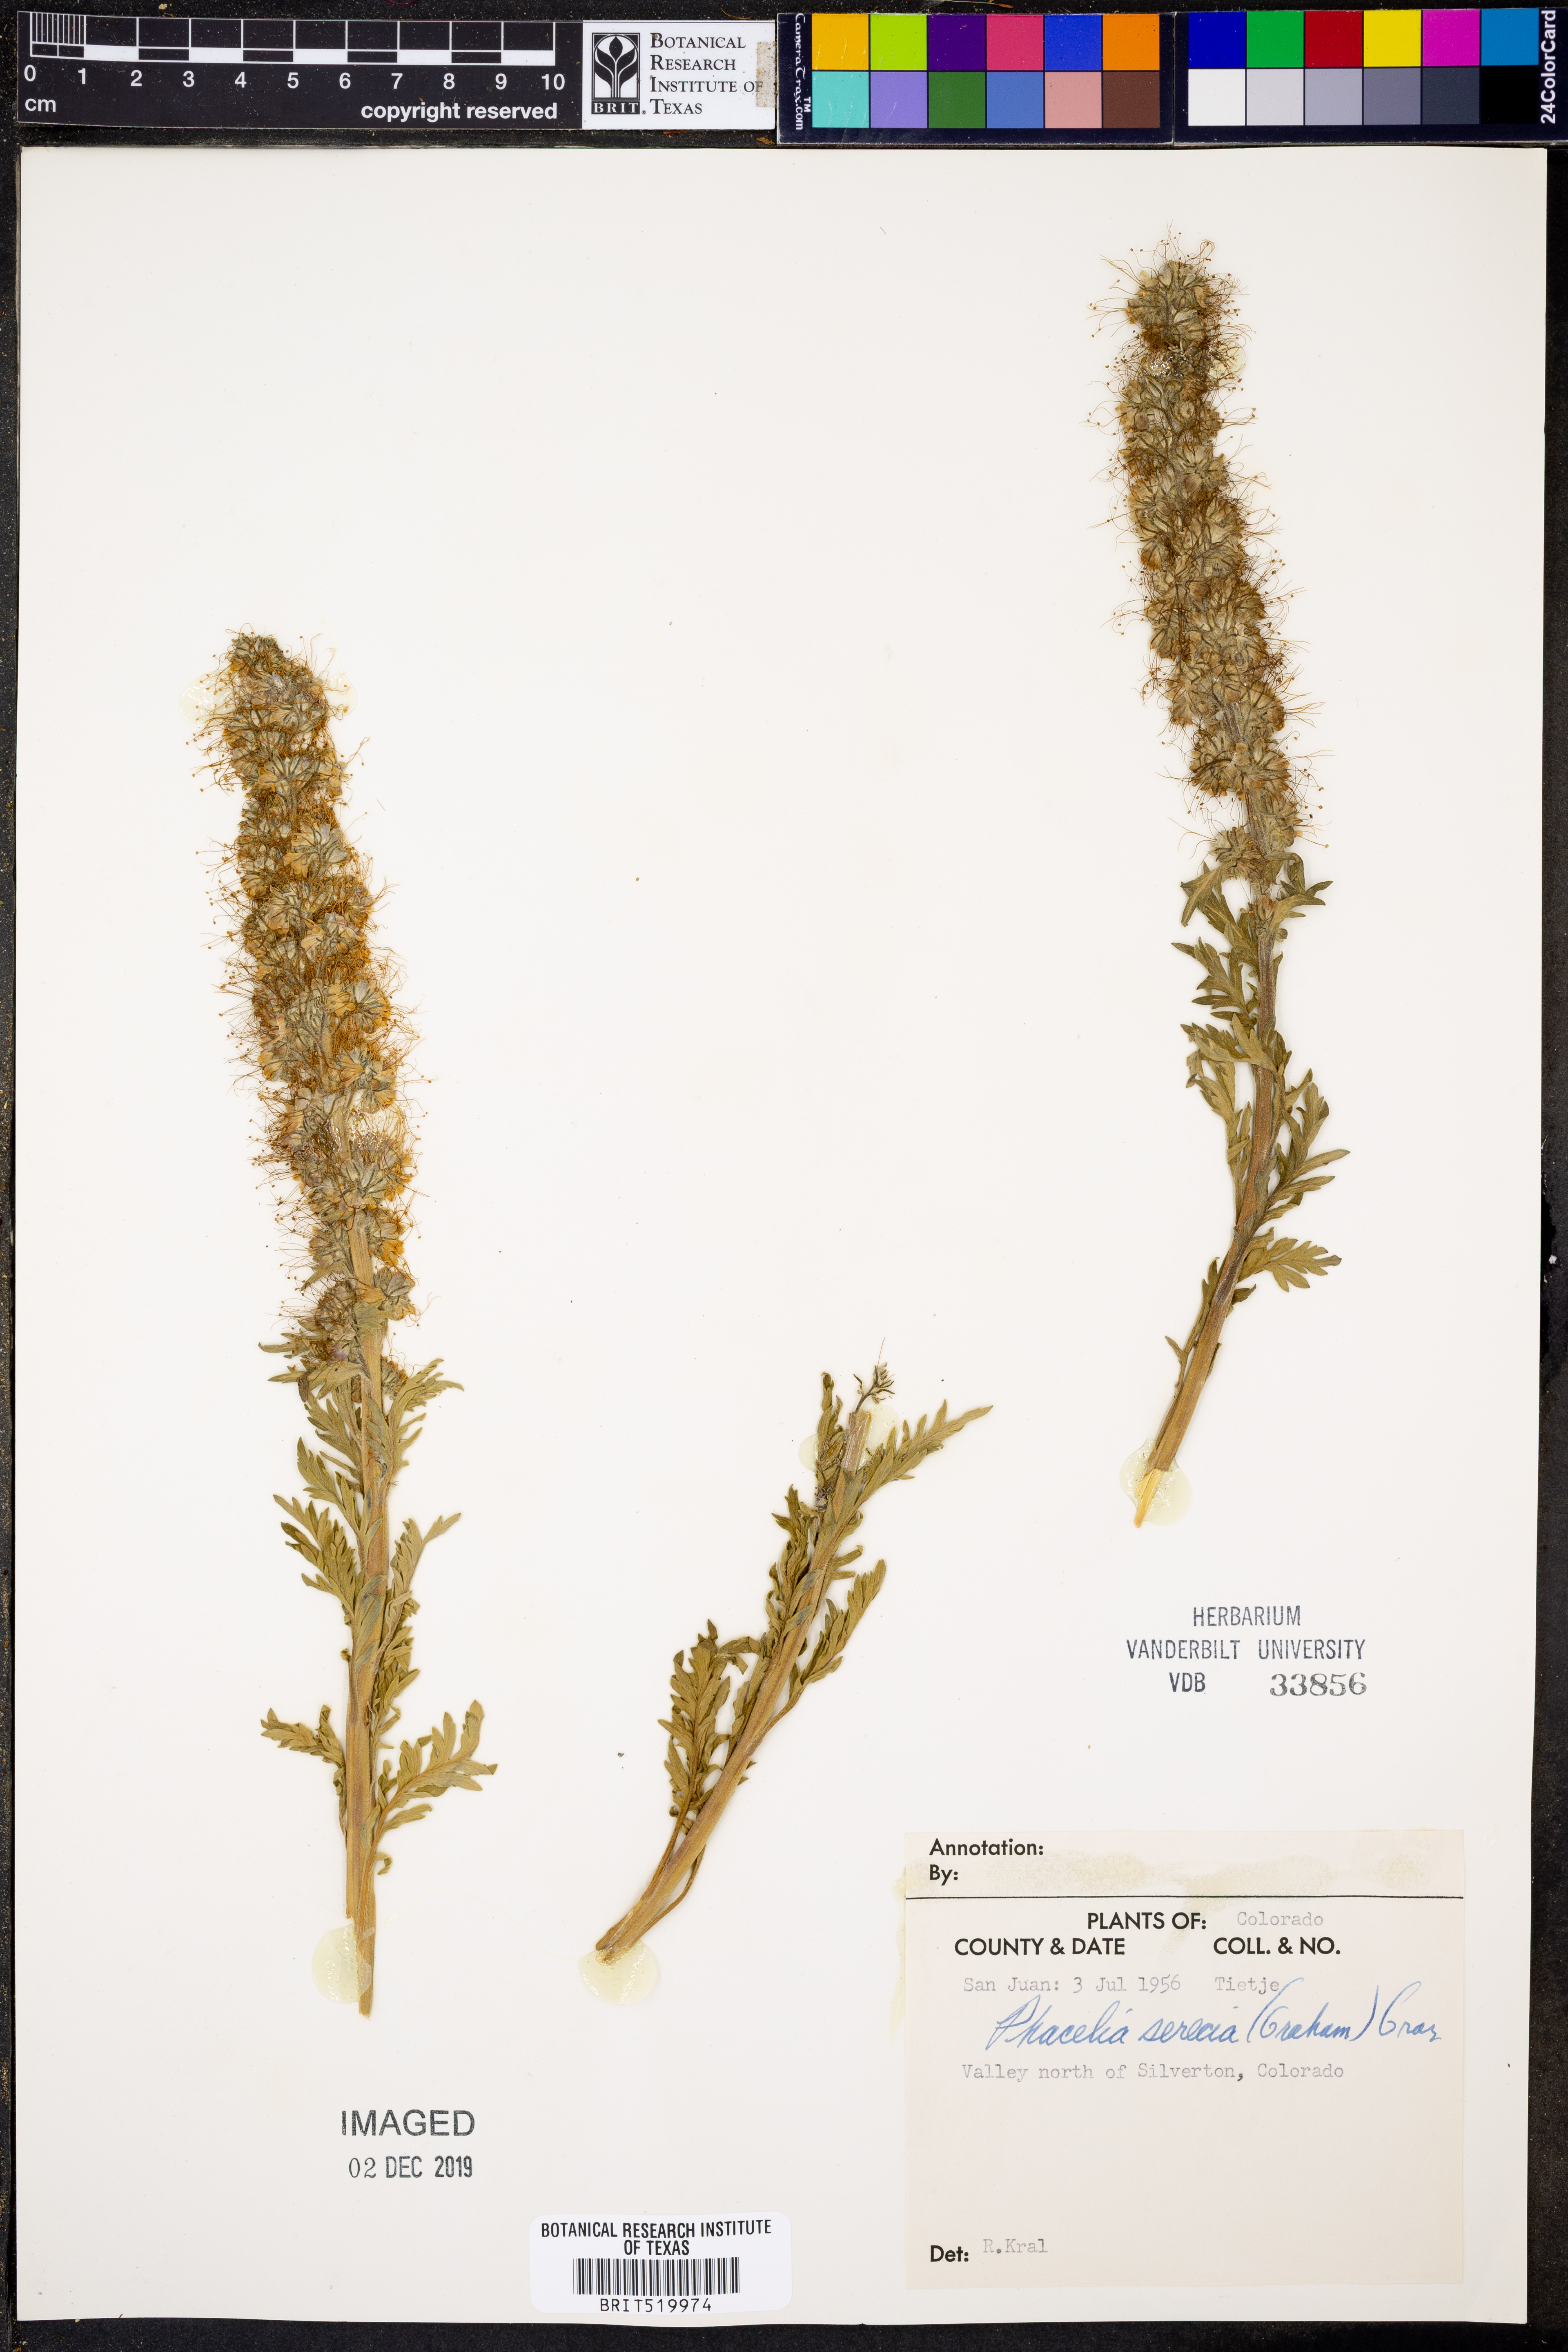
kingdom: Plantae
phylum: Tracheophyta
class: Magnoliopsida
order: Boraginales
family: Hydrophyllaceae
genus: Phacelia
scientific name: Phacelia sericea
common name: Silky phacelia
